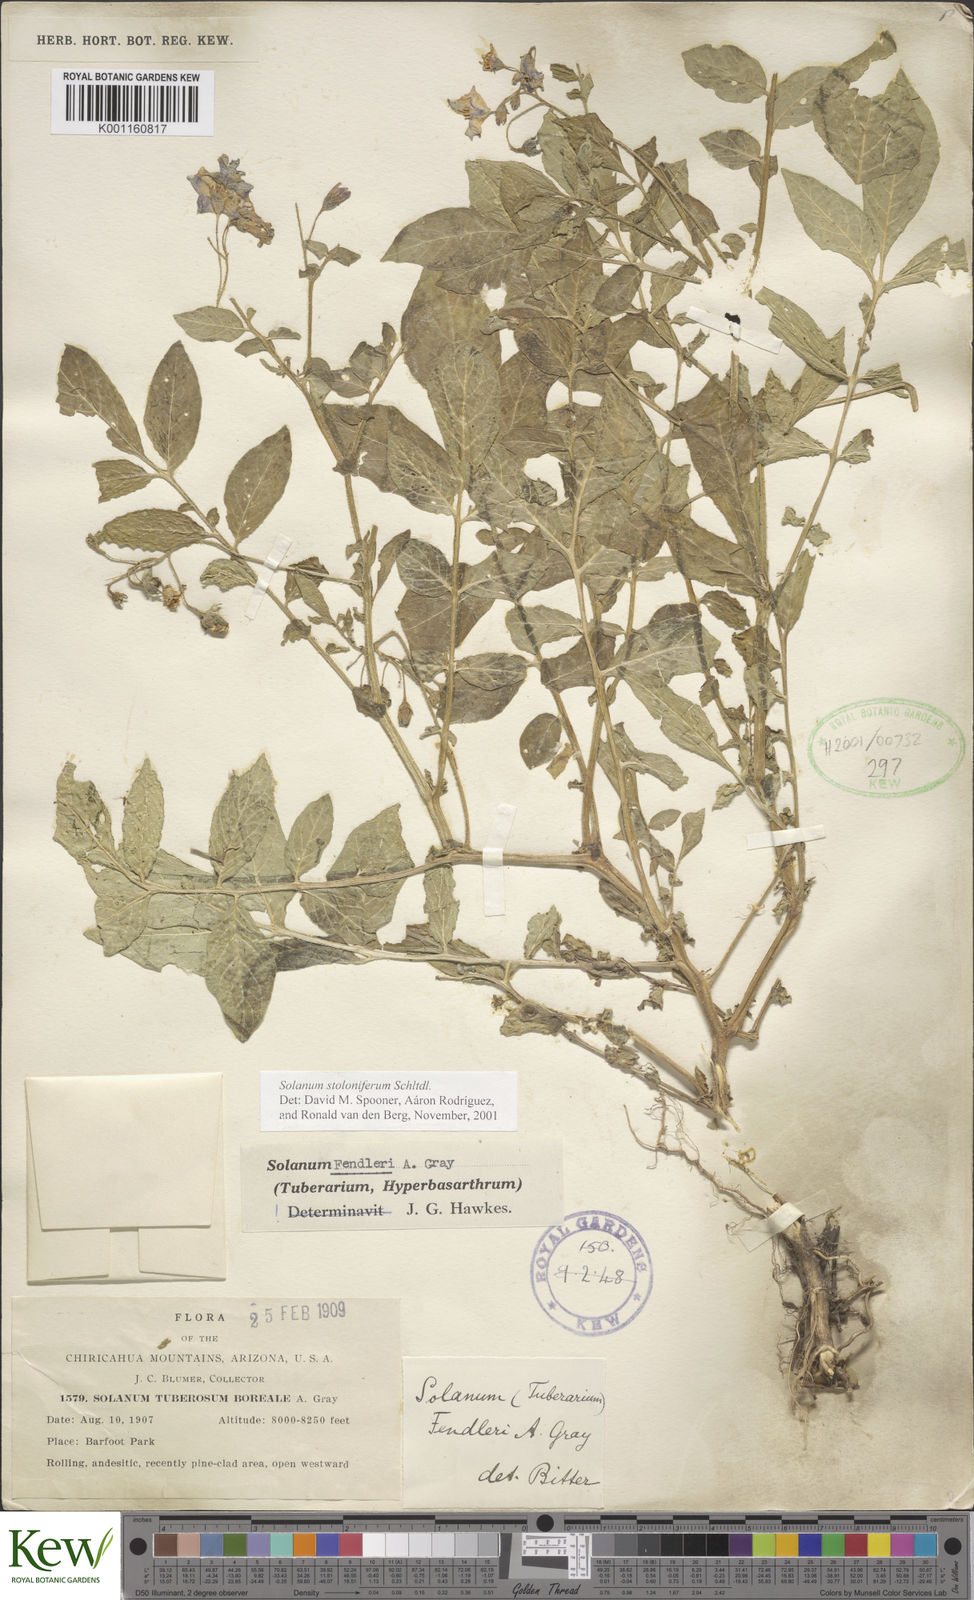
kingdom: Plantae
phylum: Tracheophyta
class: Magnoliopsida
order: Solanales
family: Solanaceae
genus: Solanum
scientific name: Solanum stoloniferum
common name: Fendler's nighshade
